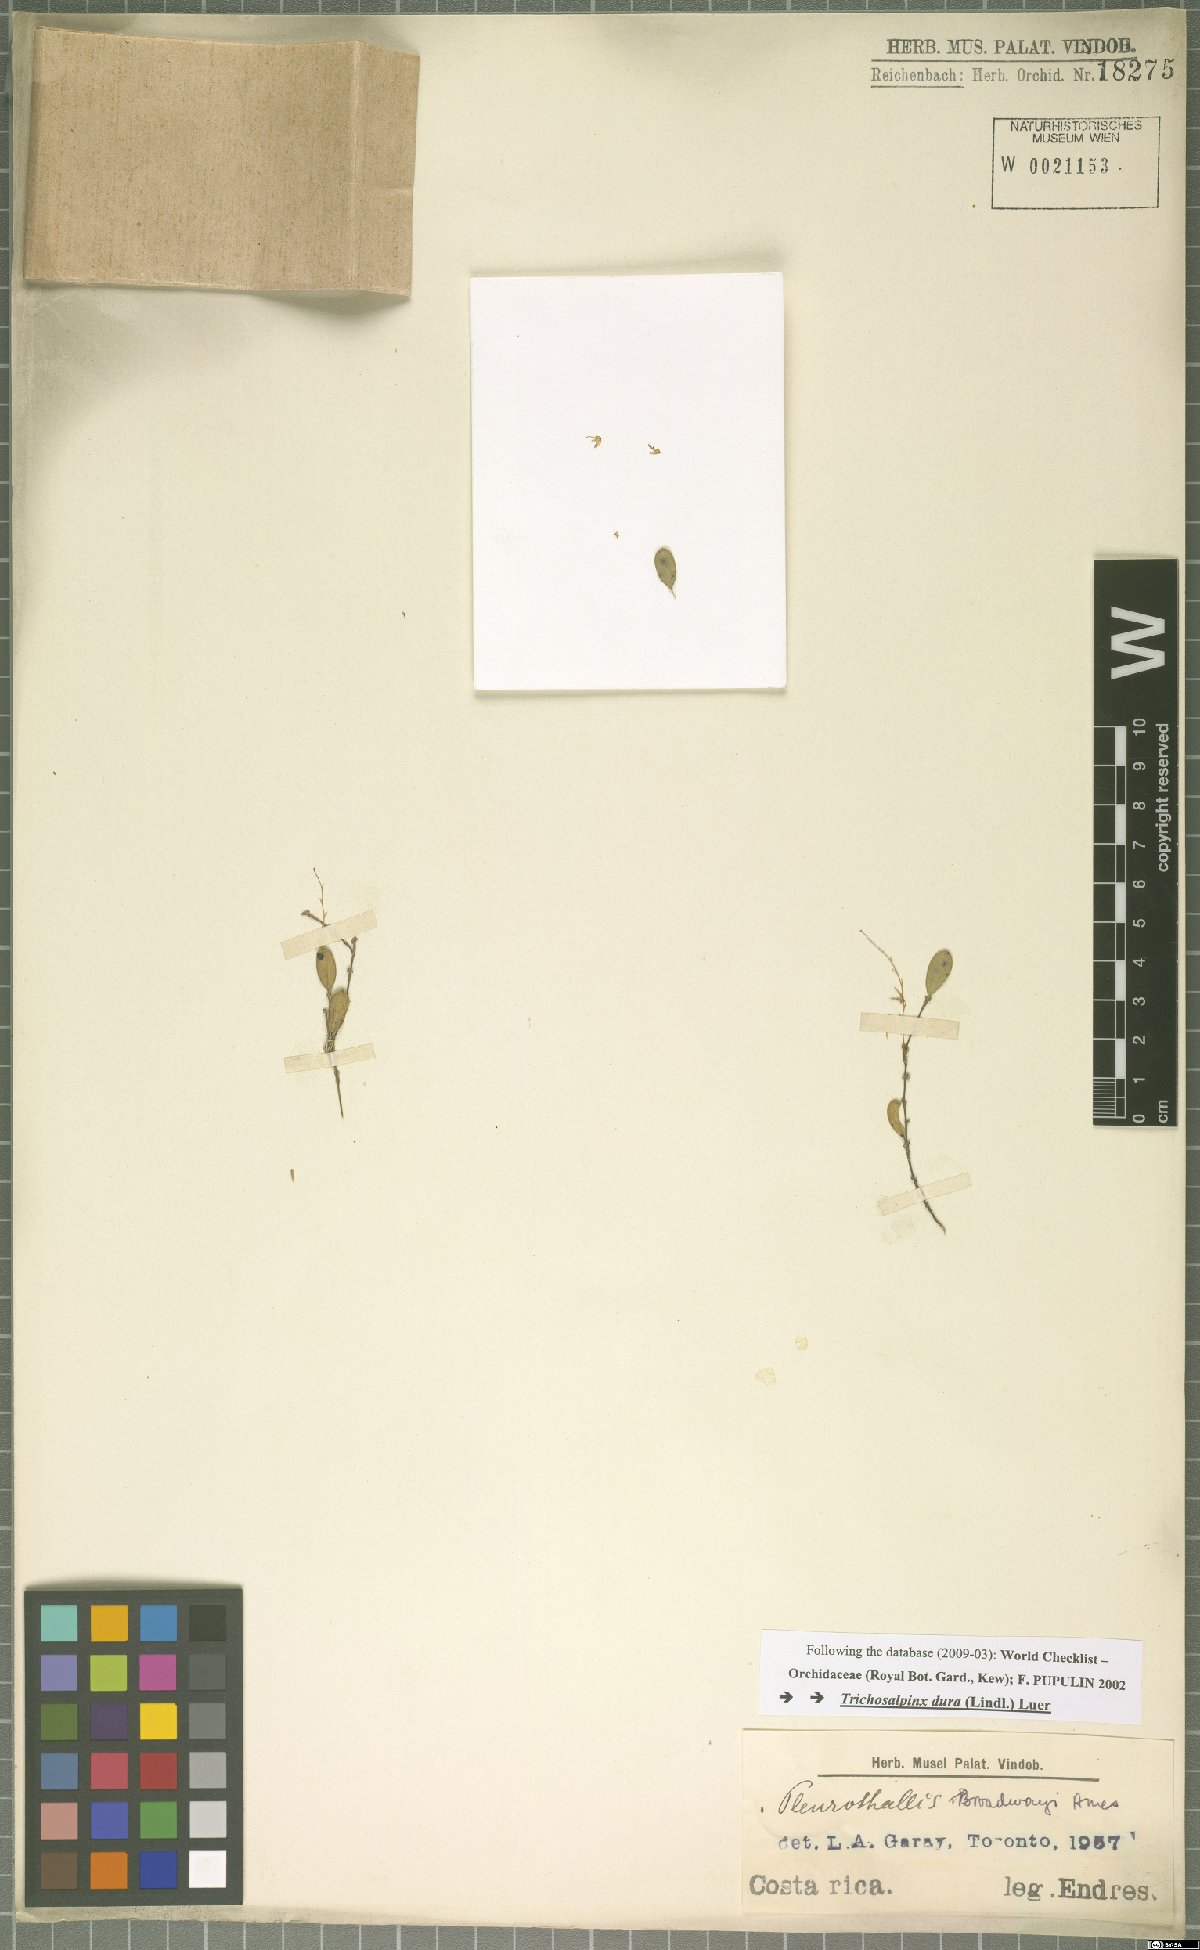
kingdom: Plantae
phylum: Tracheophyta
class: Liliopsida
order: Asparagales
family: Orchidaceae
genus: Trichosalpinx
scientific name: Trichosalpinx dura
